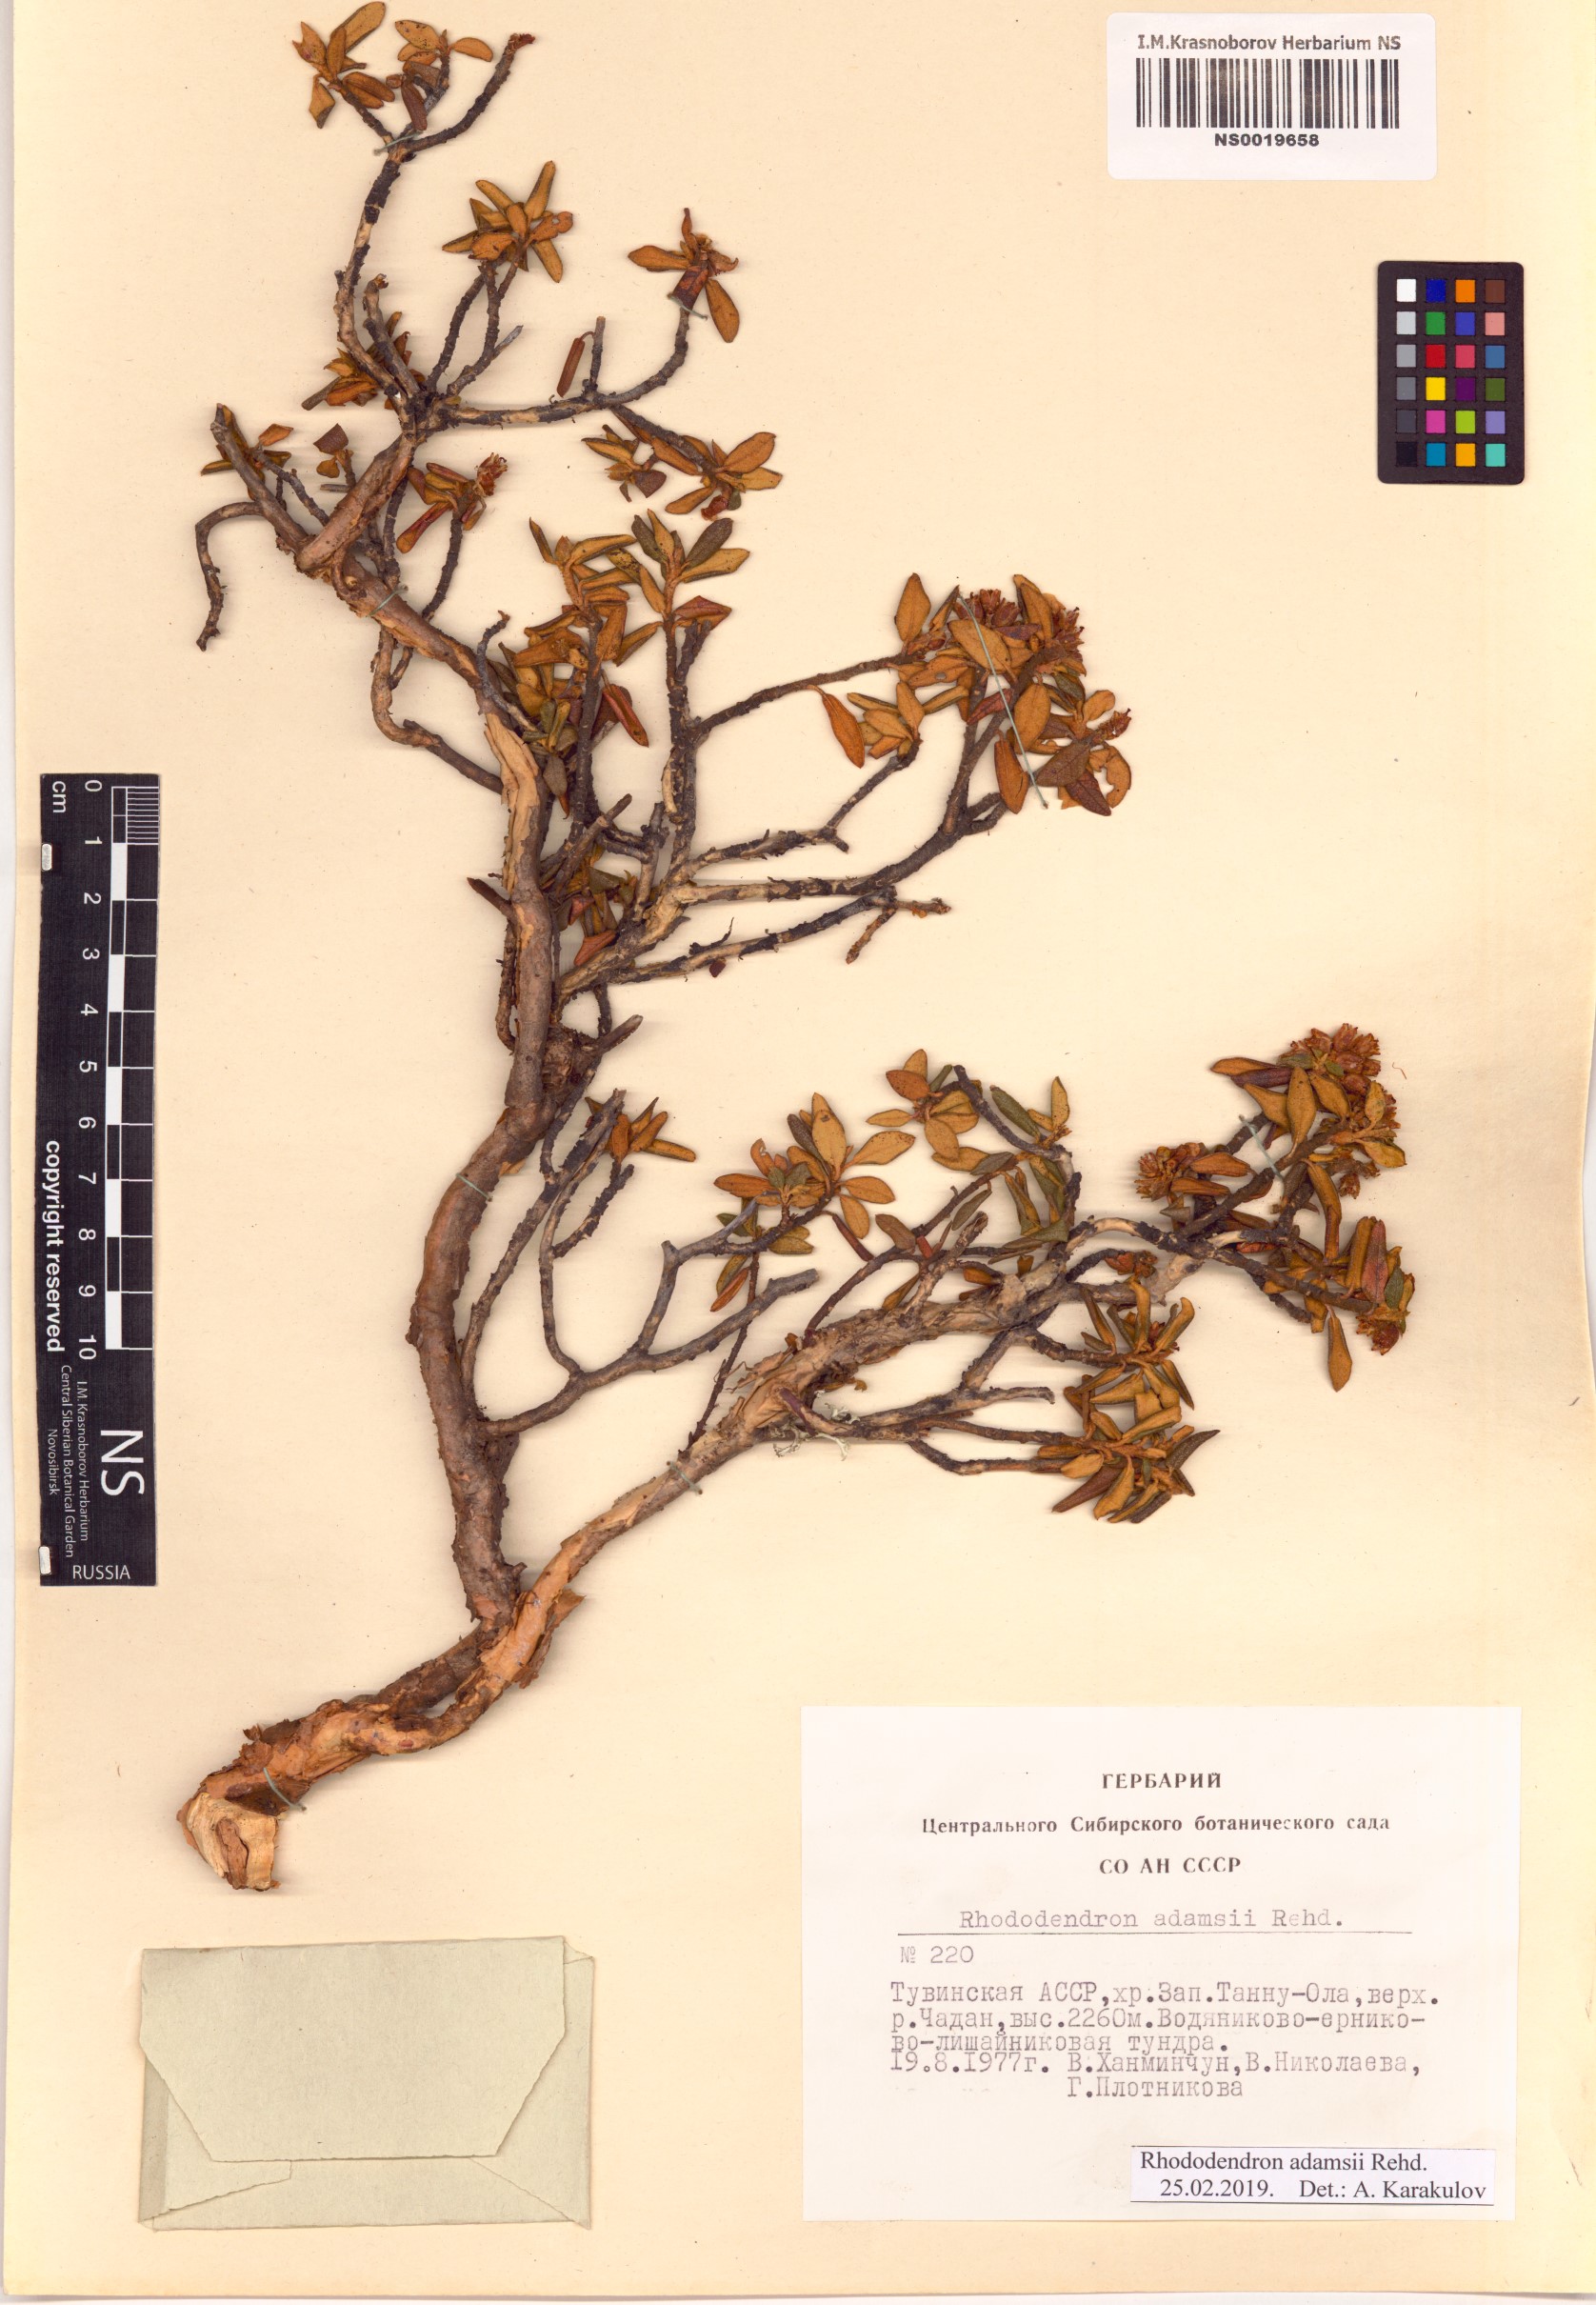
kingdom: Plantae
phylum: Tracheophyta
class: Magnoliopsida
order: Ericales
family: Ericaceae
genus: Rhododendron
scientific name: Rhododendron adamsii
